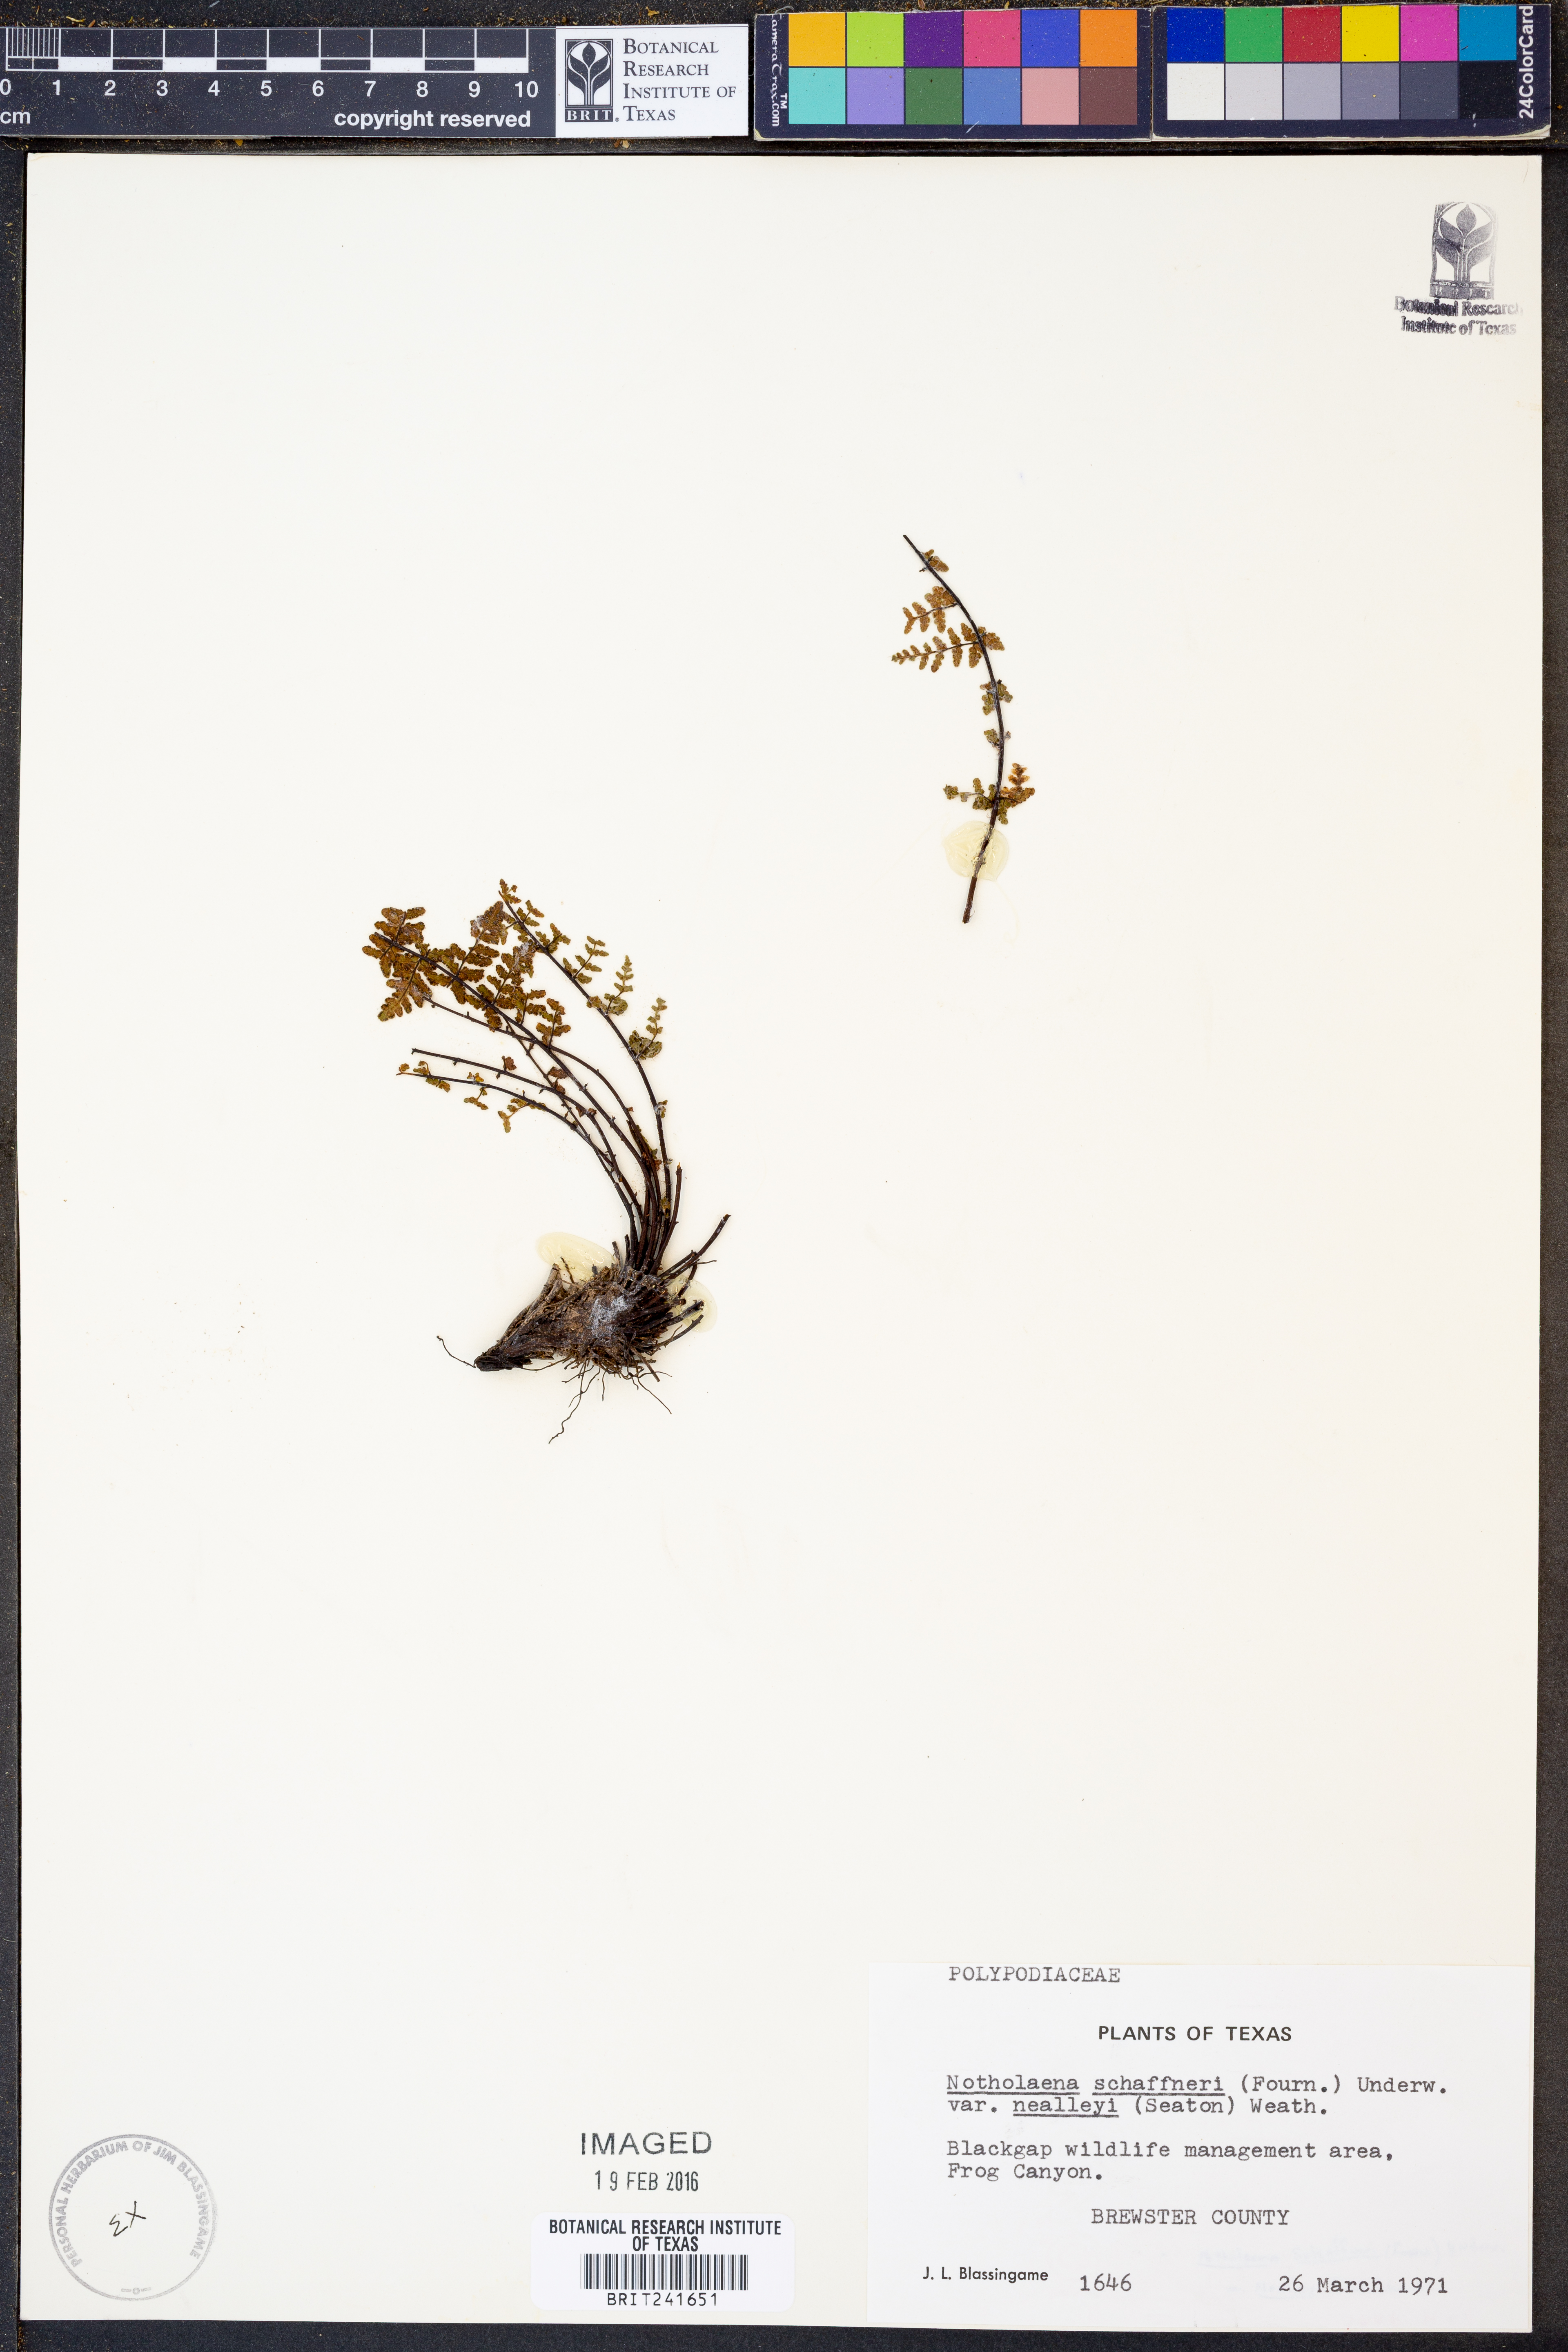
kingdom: Plantae
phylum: Tracheophyta
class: Polypodiopsida
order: Polypodiales
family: Pteridaceae
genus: Notholaena
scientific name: Notholaena schaffneri
